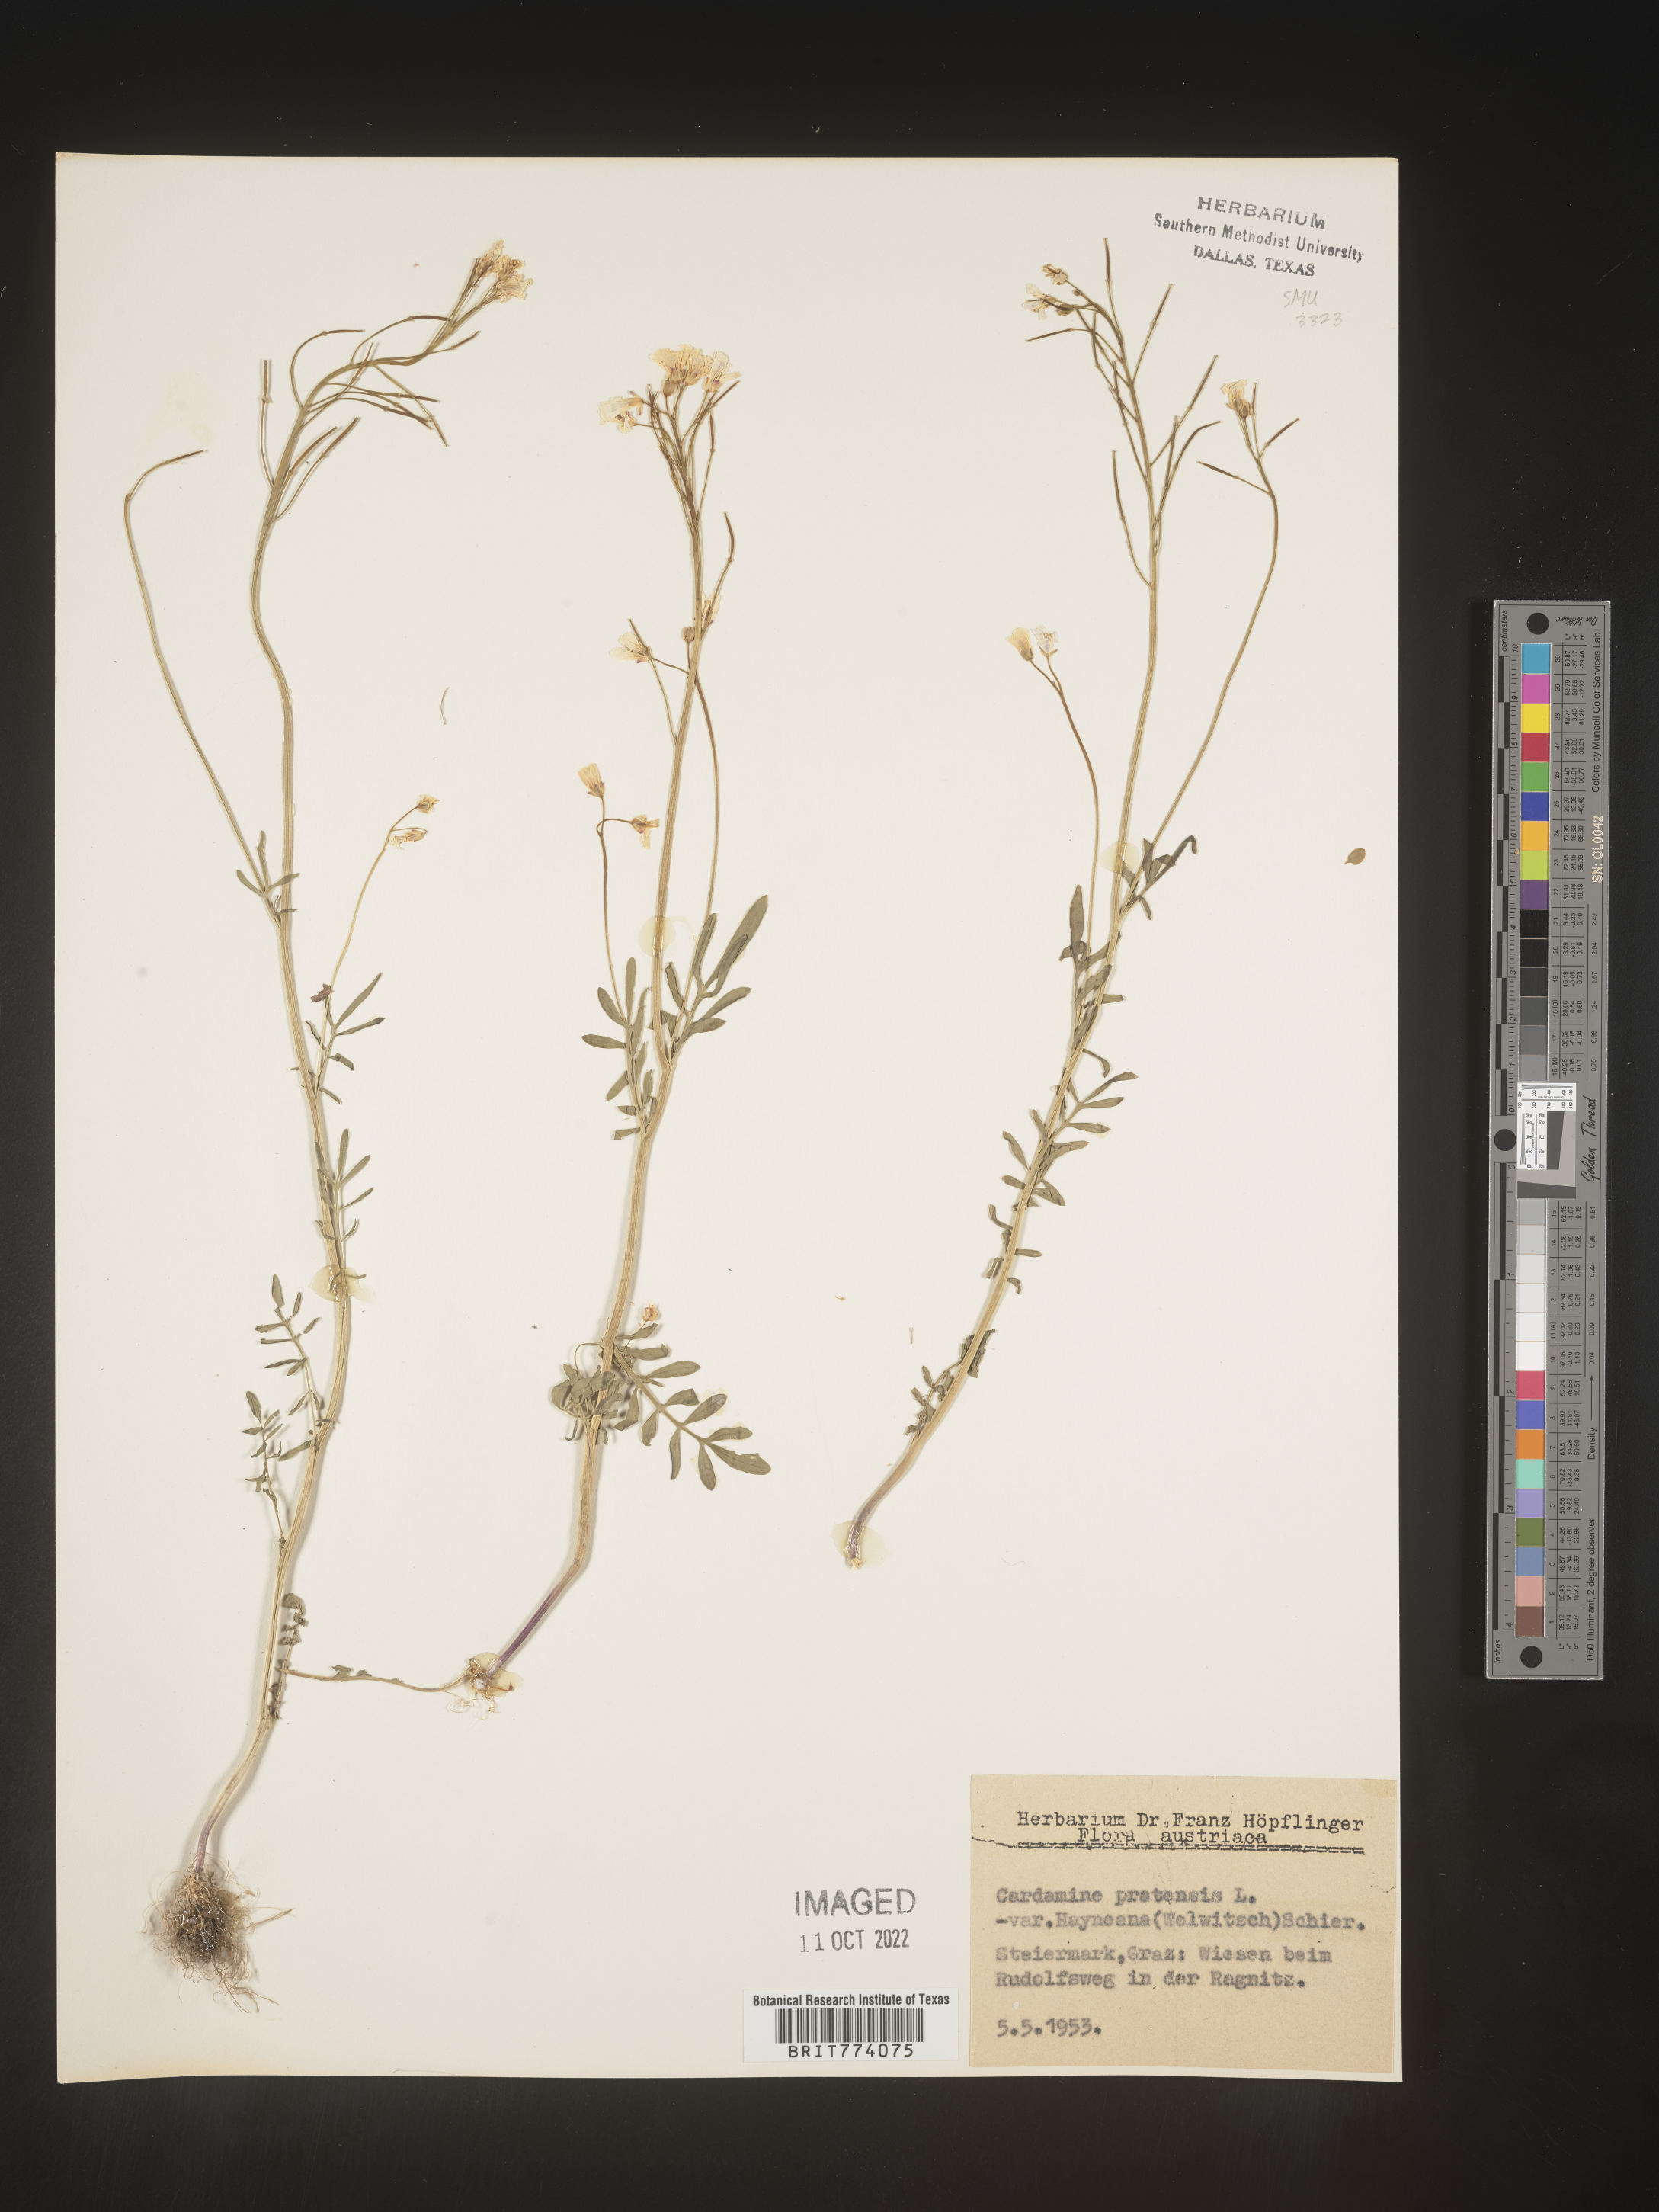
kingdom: Plantae
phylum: Tracheophyta
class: Magnoliopsida
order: Brassicales
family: Brassicaceae
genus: Cardamine
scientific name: Cardamine pratensis
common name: Cuckoo flower
